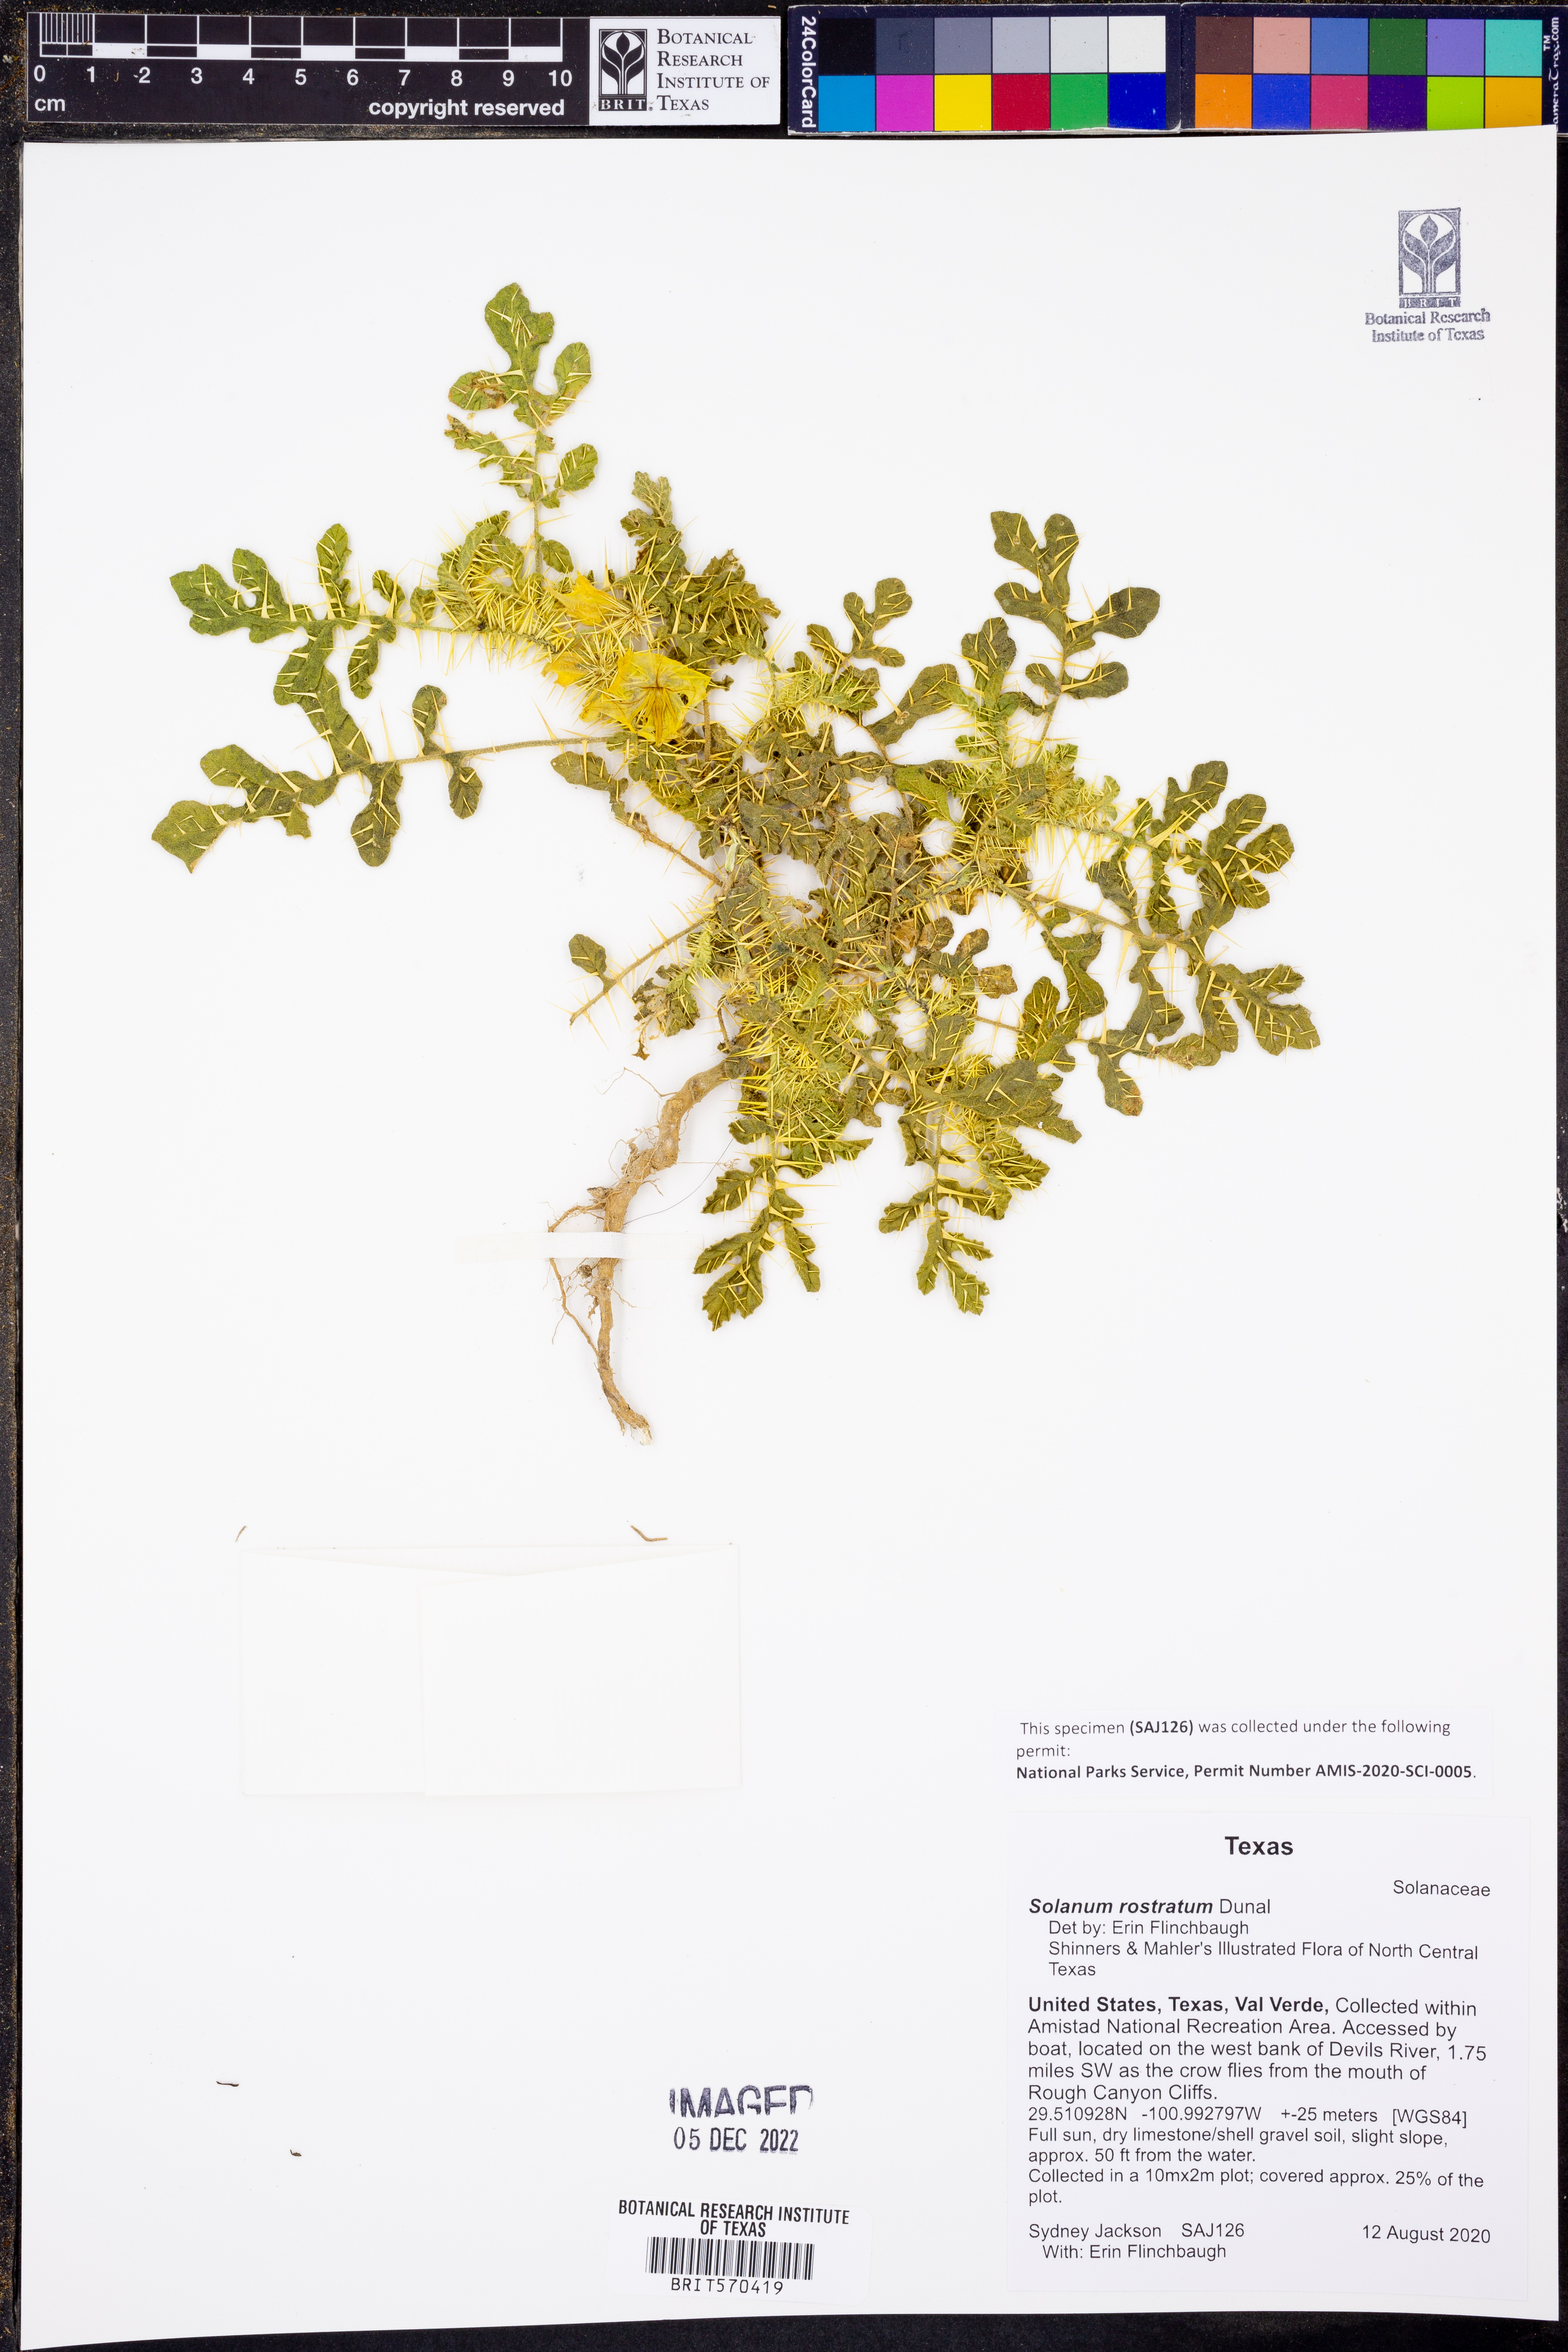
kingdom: Plantae
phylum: Tracheophyta
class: Magnoliopsida
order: Solanales
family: Solanaceae
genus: Solanum
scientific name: Solanum angustifolium
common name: Buffalobur nightshade
